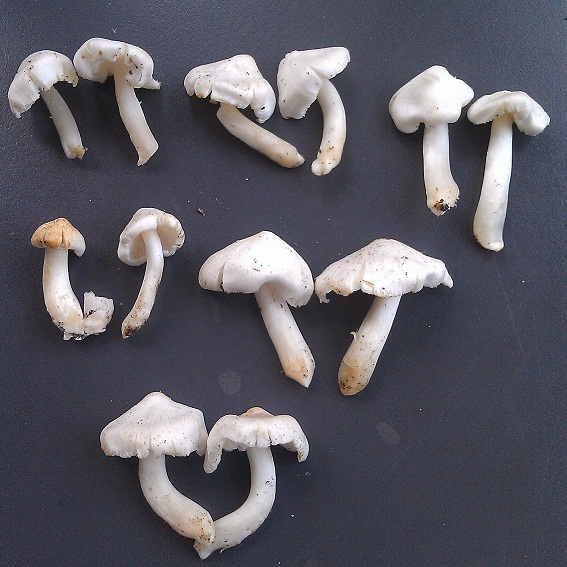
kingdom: Fungi
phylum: Basidiomycota
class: Agaricomycetes
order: Agaricales
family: Tricholomataceae
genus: Tricholoma
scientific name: Tricholoma argyraceum
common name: spids ridderhat
